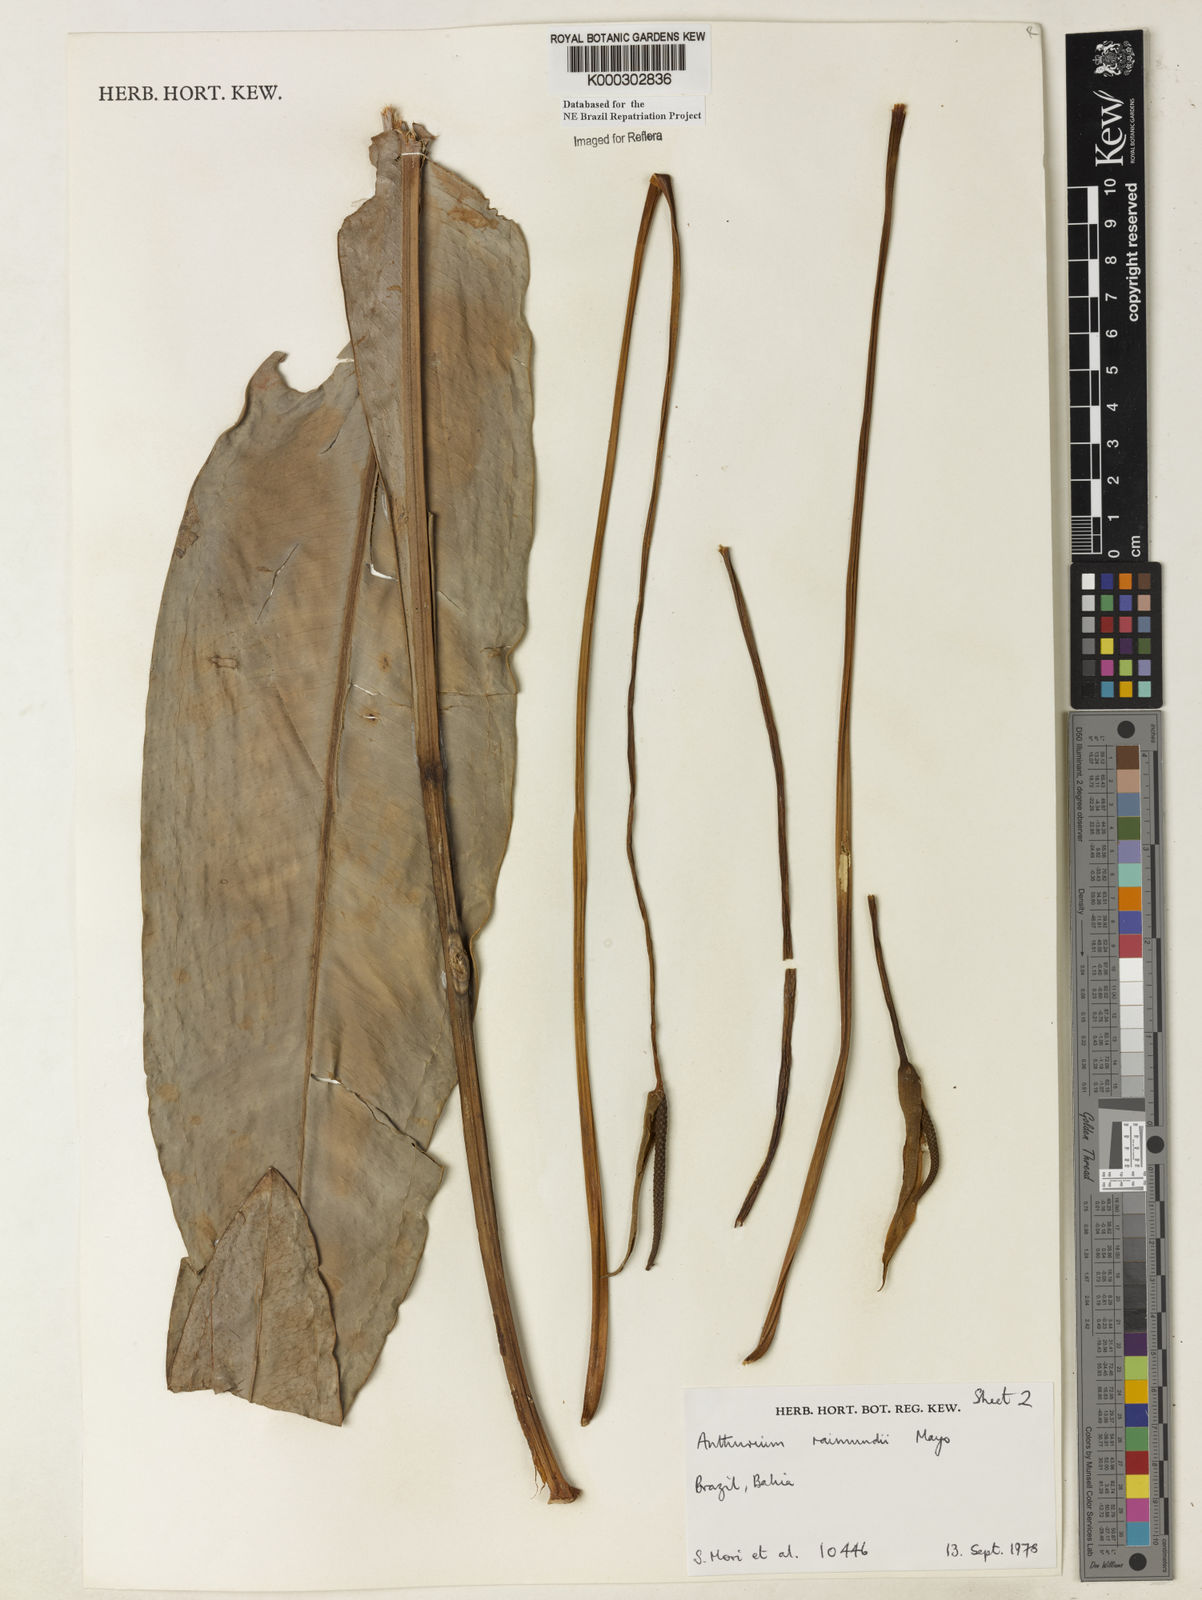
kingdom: Plantae
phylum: Tracheophyta
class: Liliopsida
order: Alismatales
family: Araceae
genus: Anthurium
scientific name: Anthurium raimundii
